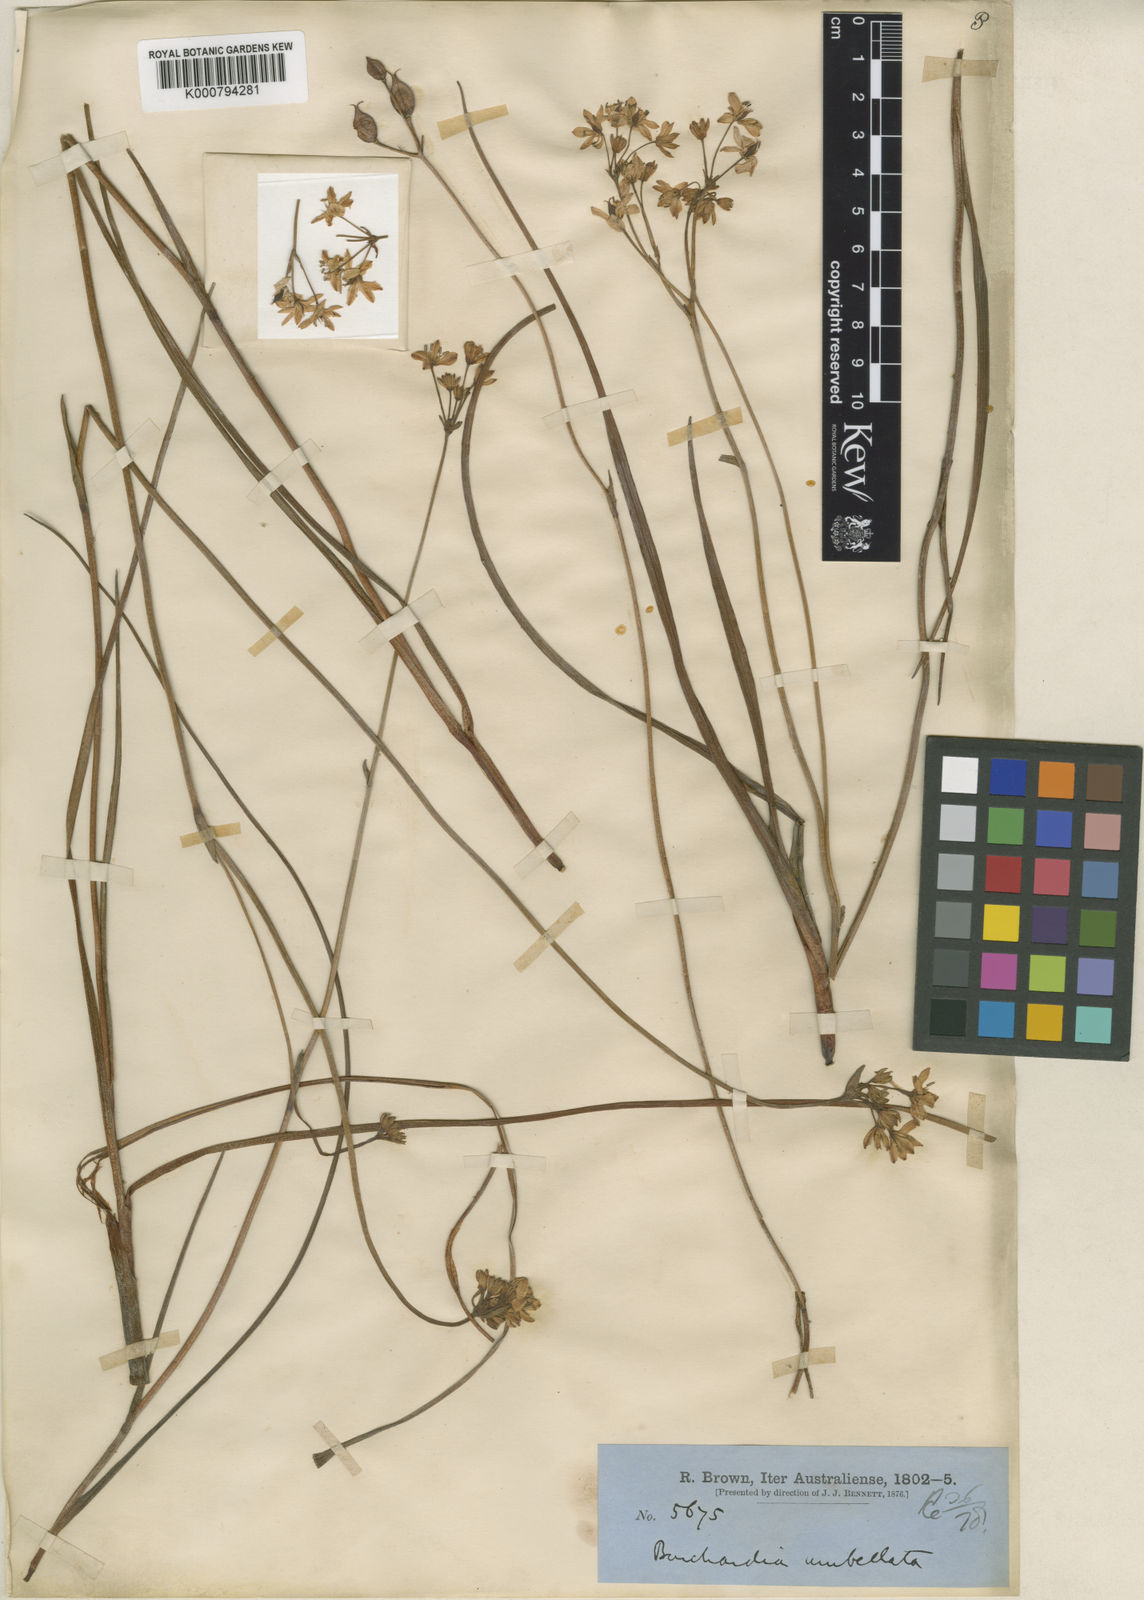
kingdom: Plantae
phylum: Tracheophyta
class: Liliopsida
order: Liliales
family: Colchicaceae
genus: Burchardia
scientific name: Burchardia umbellata
